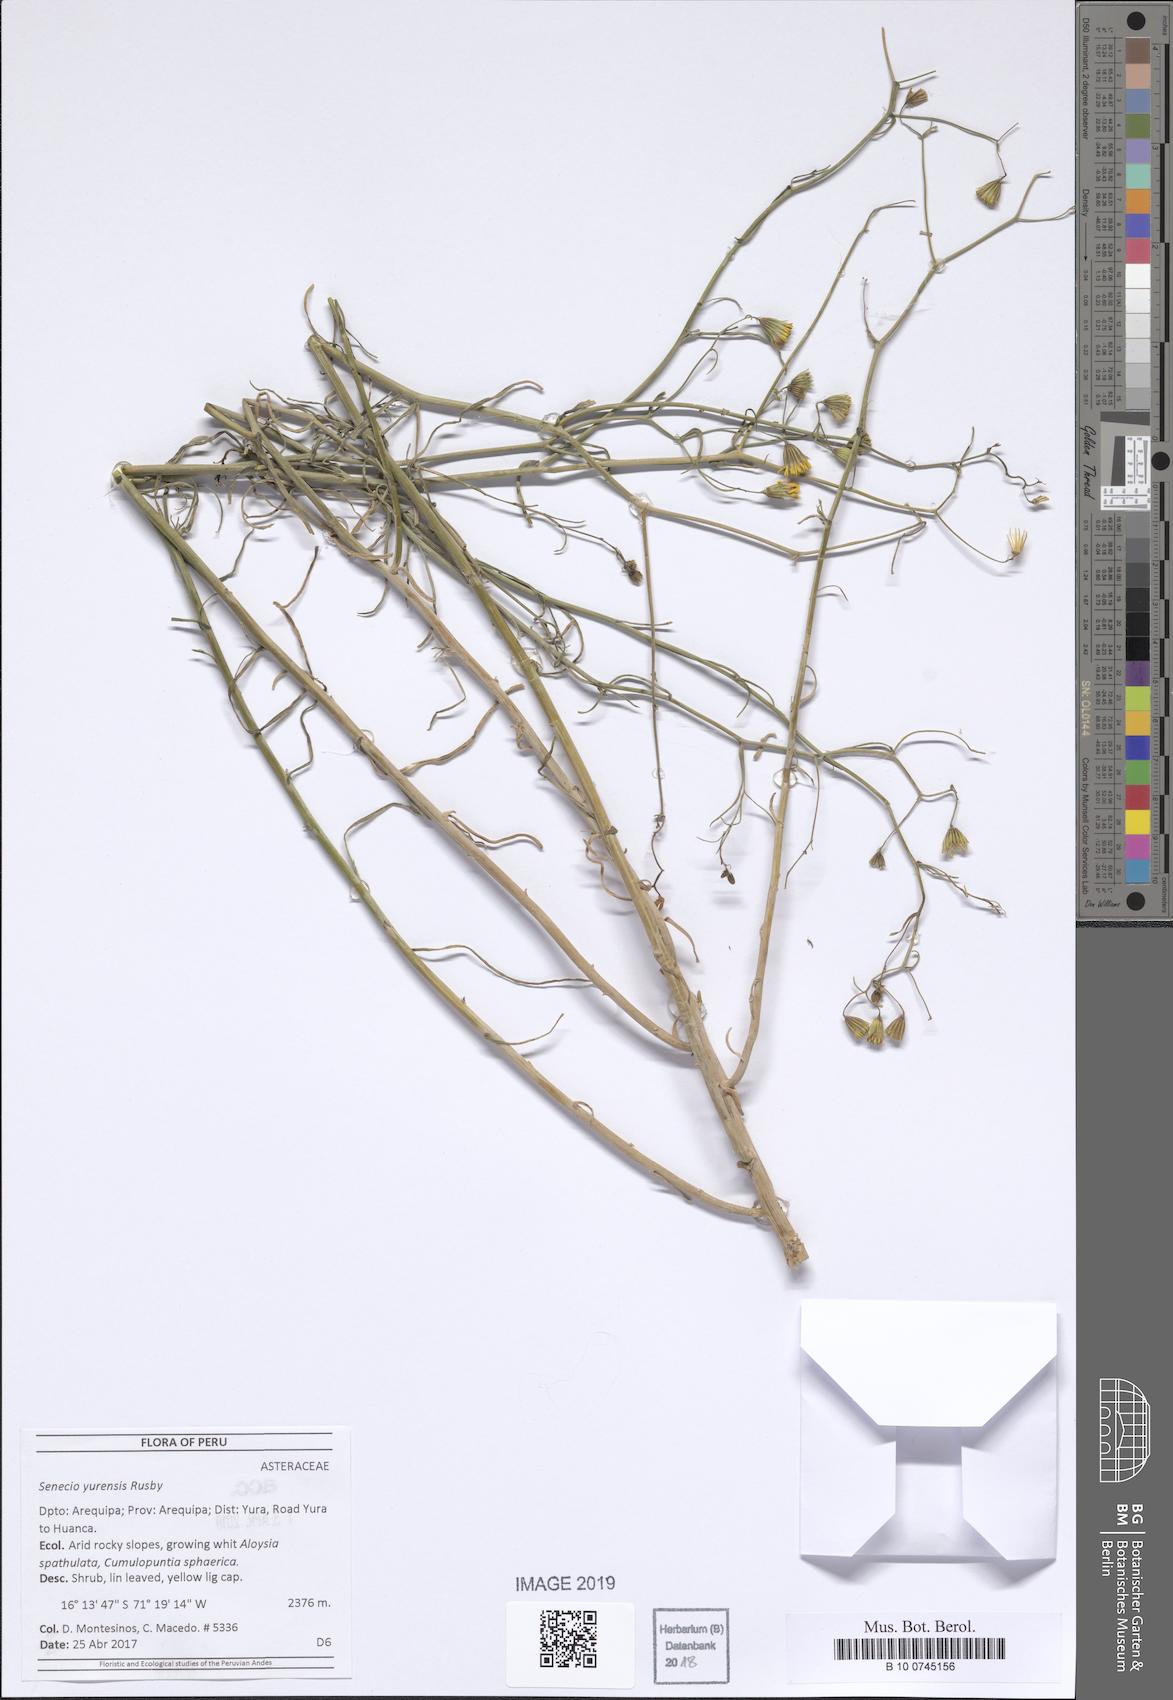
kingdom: Plantae
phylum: Tracheophyta
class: Magnoliopsida
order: Asterales
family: Asteraceae
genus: Senecio
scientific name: Senecio yurensis
